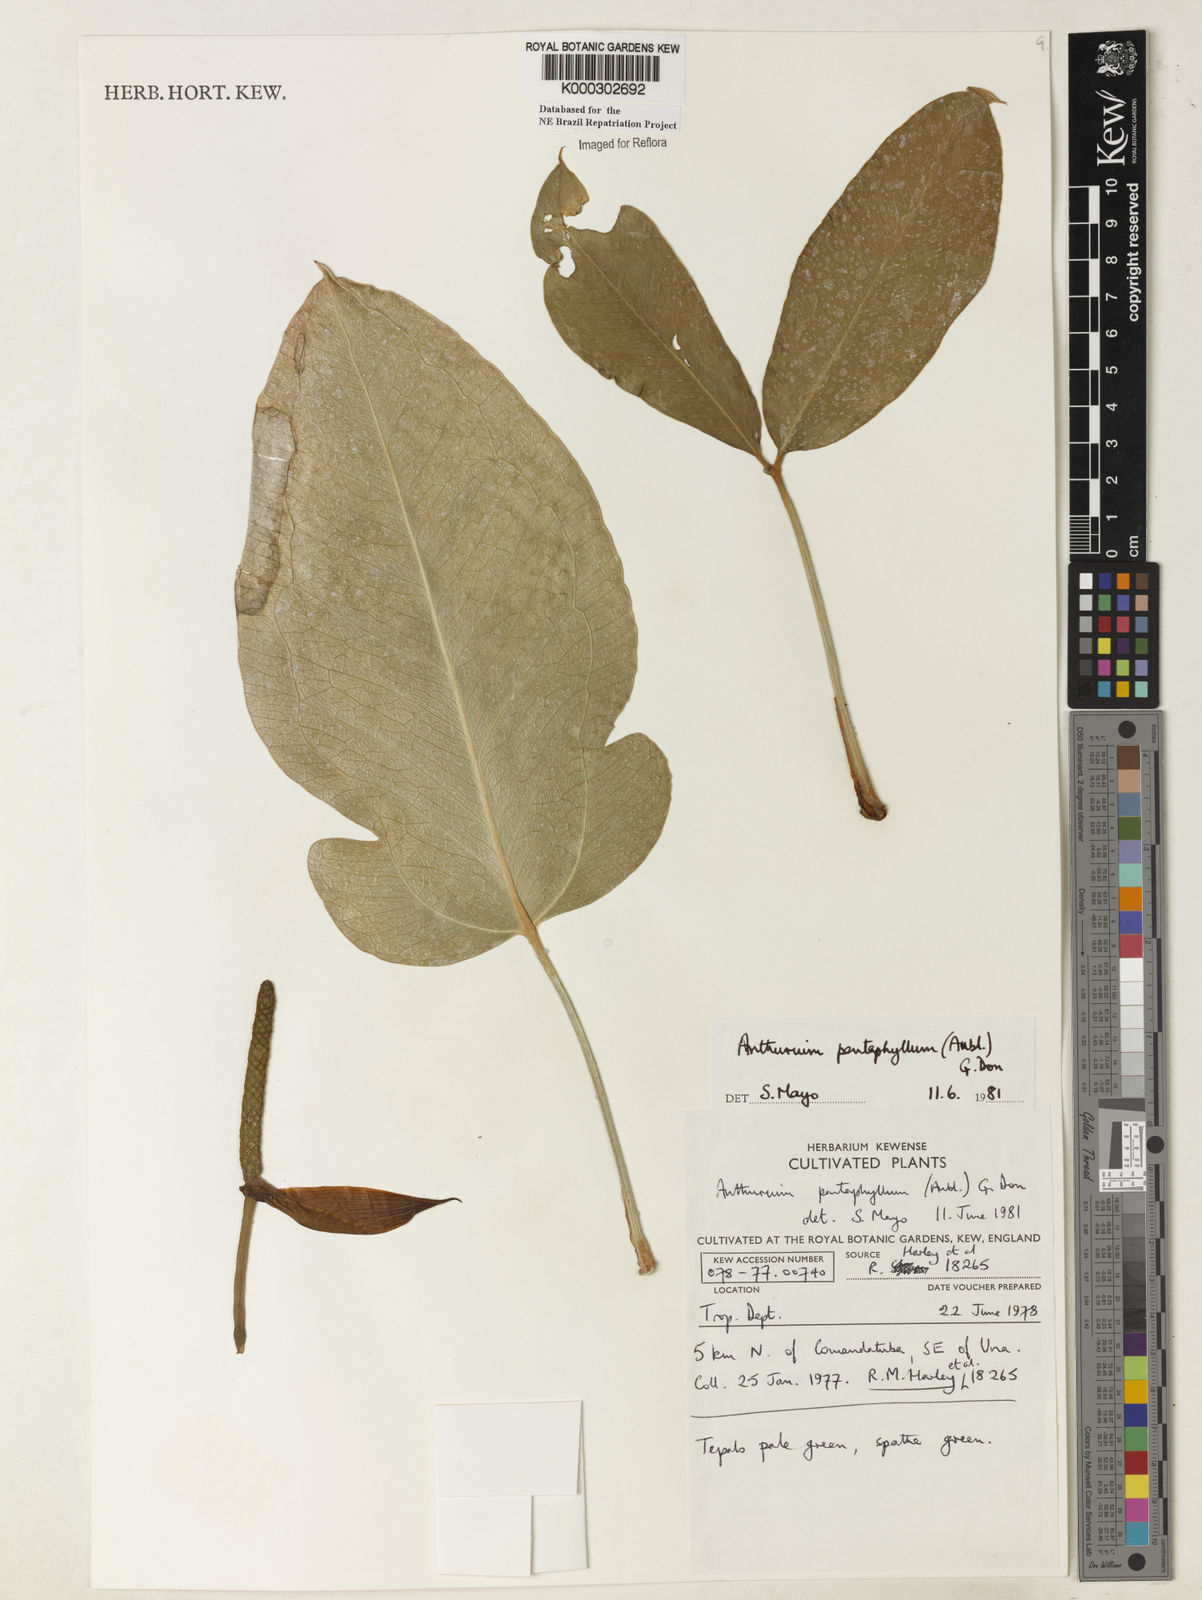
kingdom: Plantae
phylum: Tracheophyta
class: Liliopsida
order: Alismatales
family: Araceae
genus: Anthurium
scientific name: Anthurium pentaphyllum
